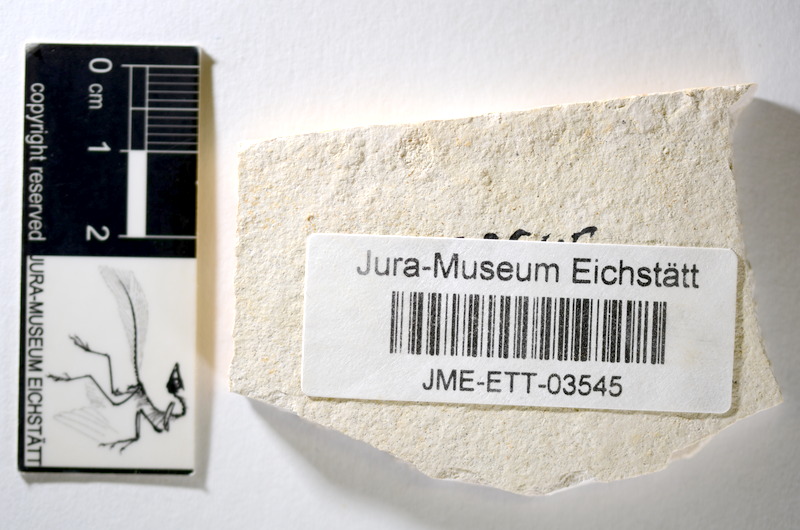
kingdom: Animalia
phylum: Chordata
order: Salmoniformes
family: Orthogonikleithridae
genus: Orthogonikleithrus
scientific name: Orthogonikleithrus hoelli
